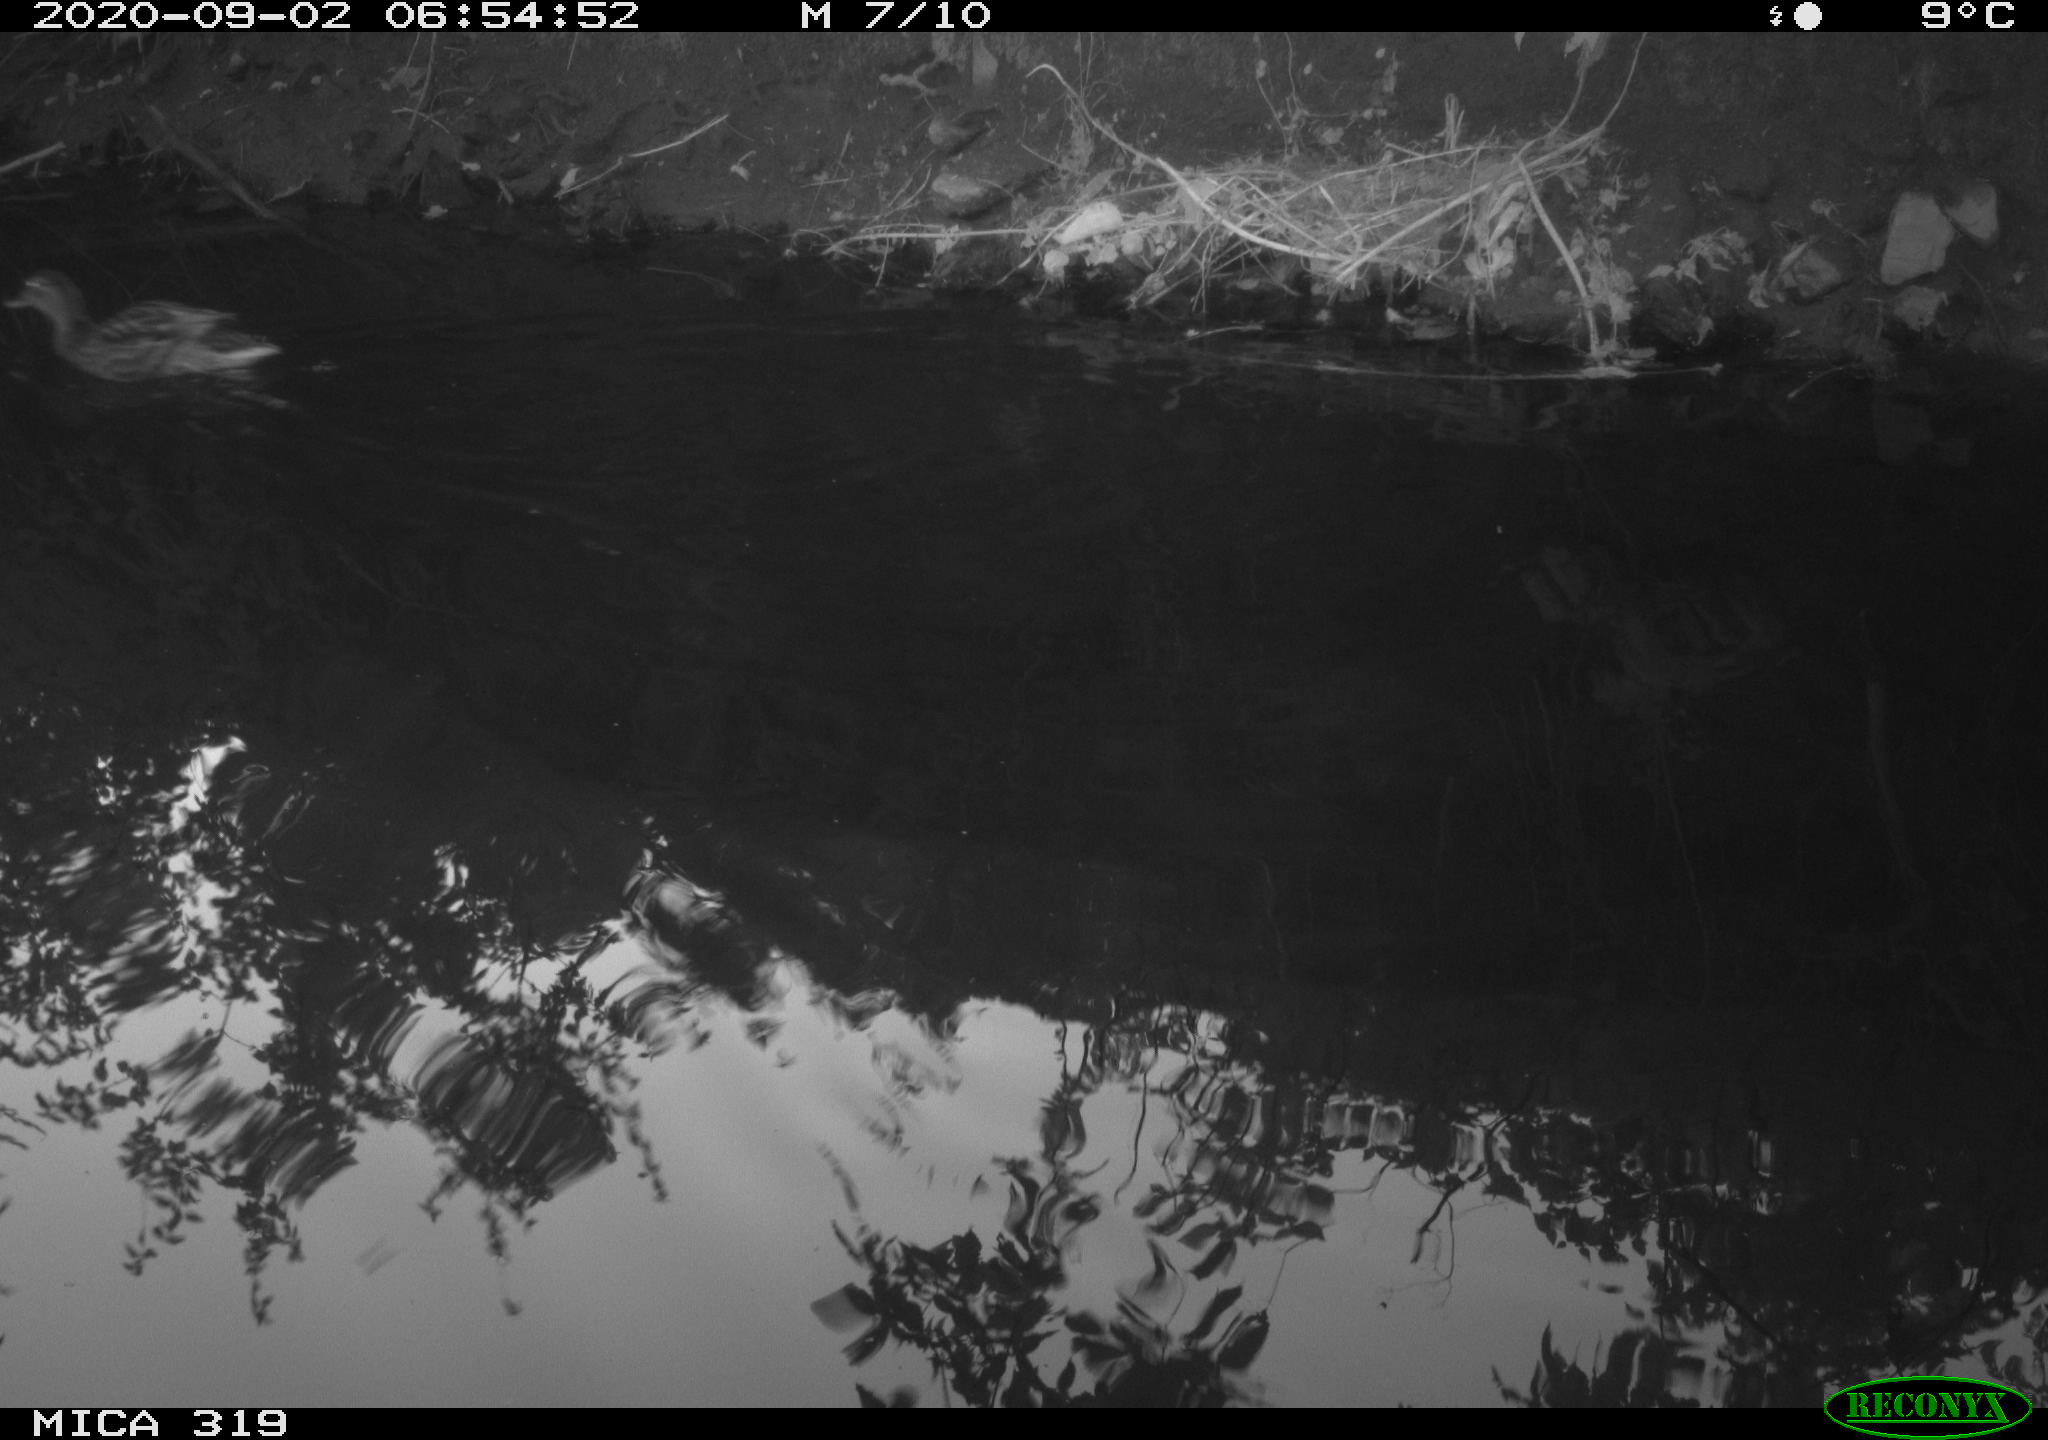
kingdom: Animalia
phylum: Chordata
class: Aves
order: Anseriformes
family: Anatidae
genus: Anas
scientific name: Anas platyrhynchos
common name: Mallard
